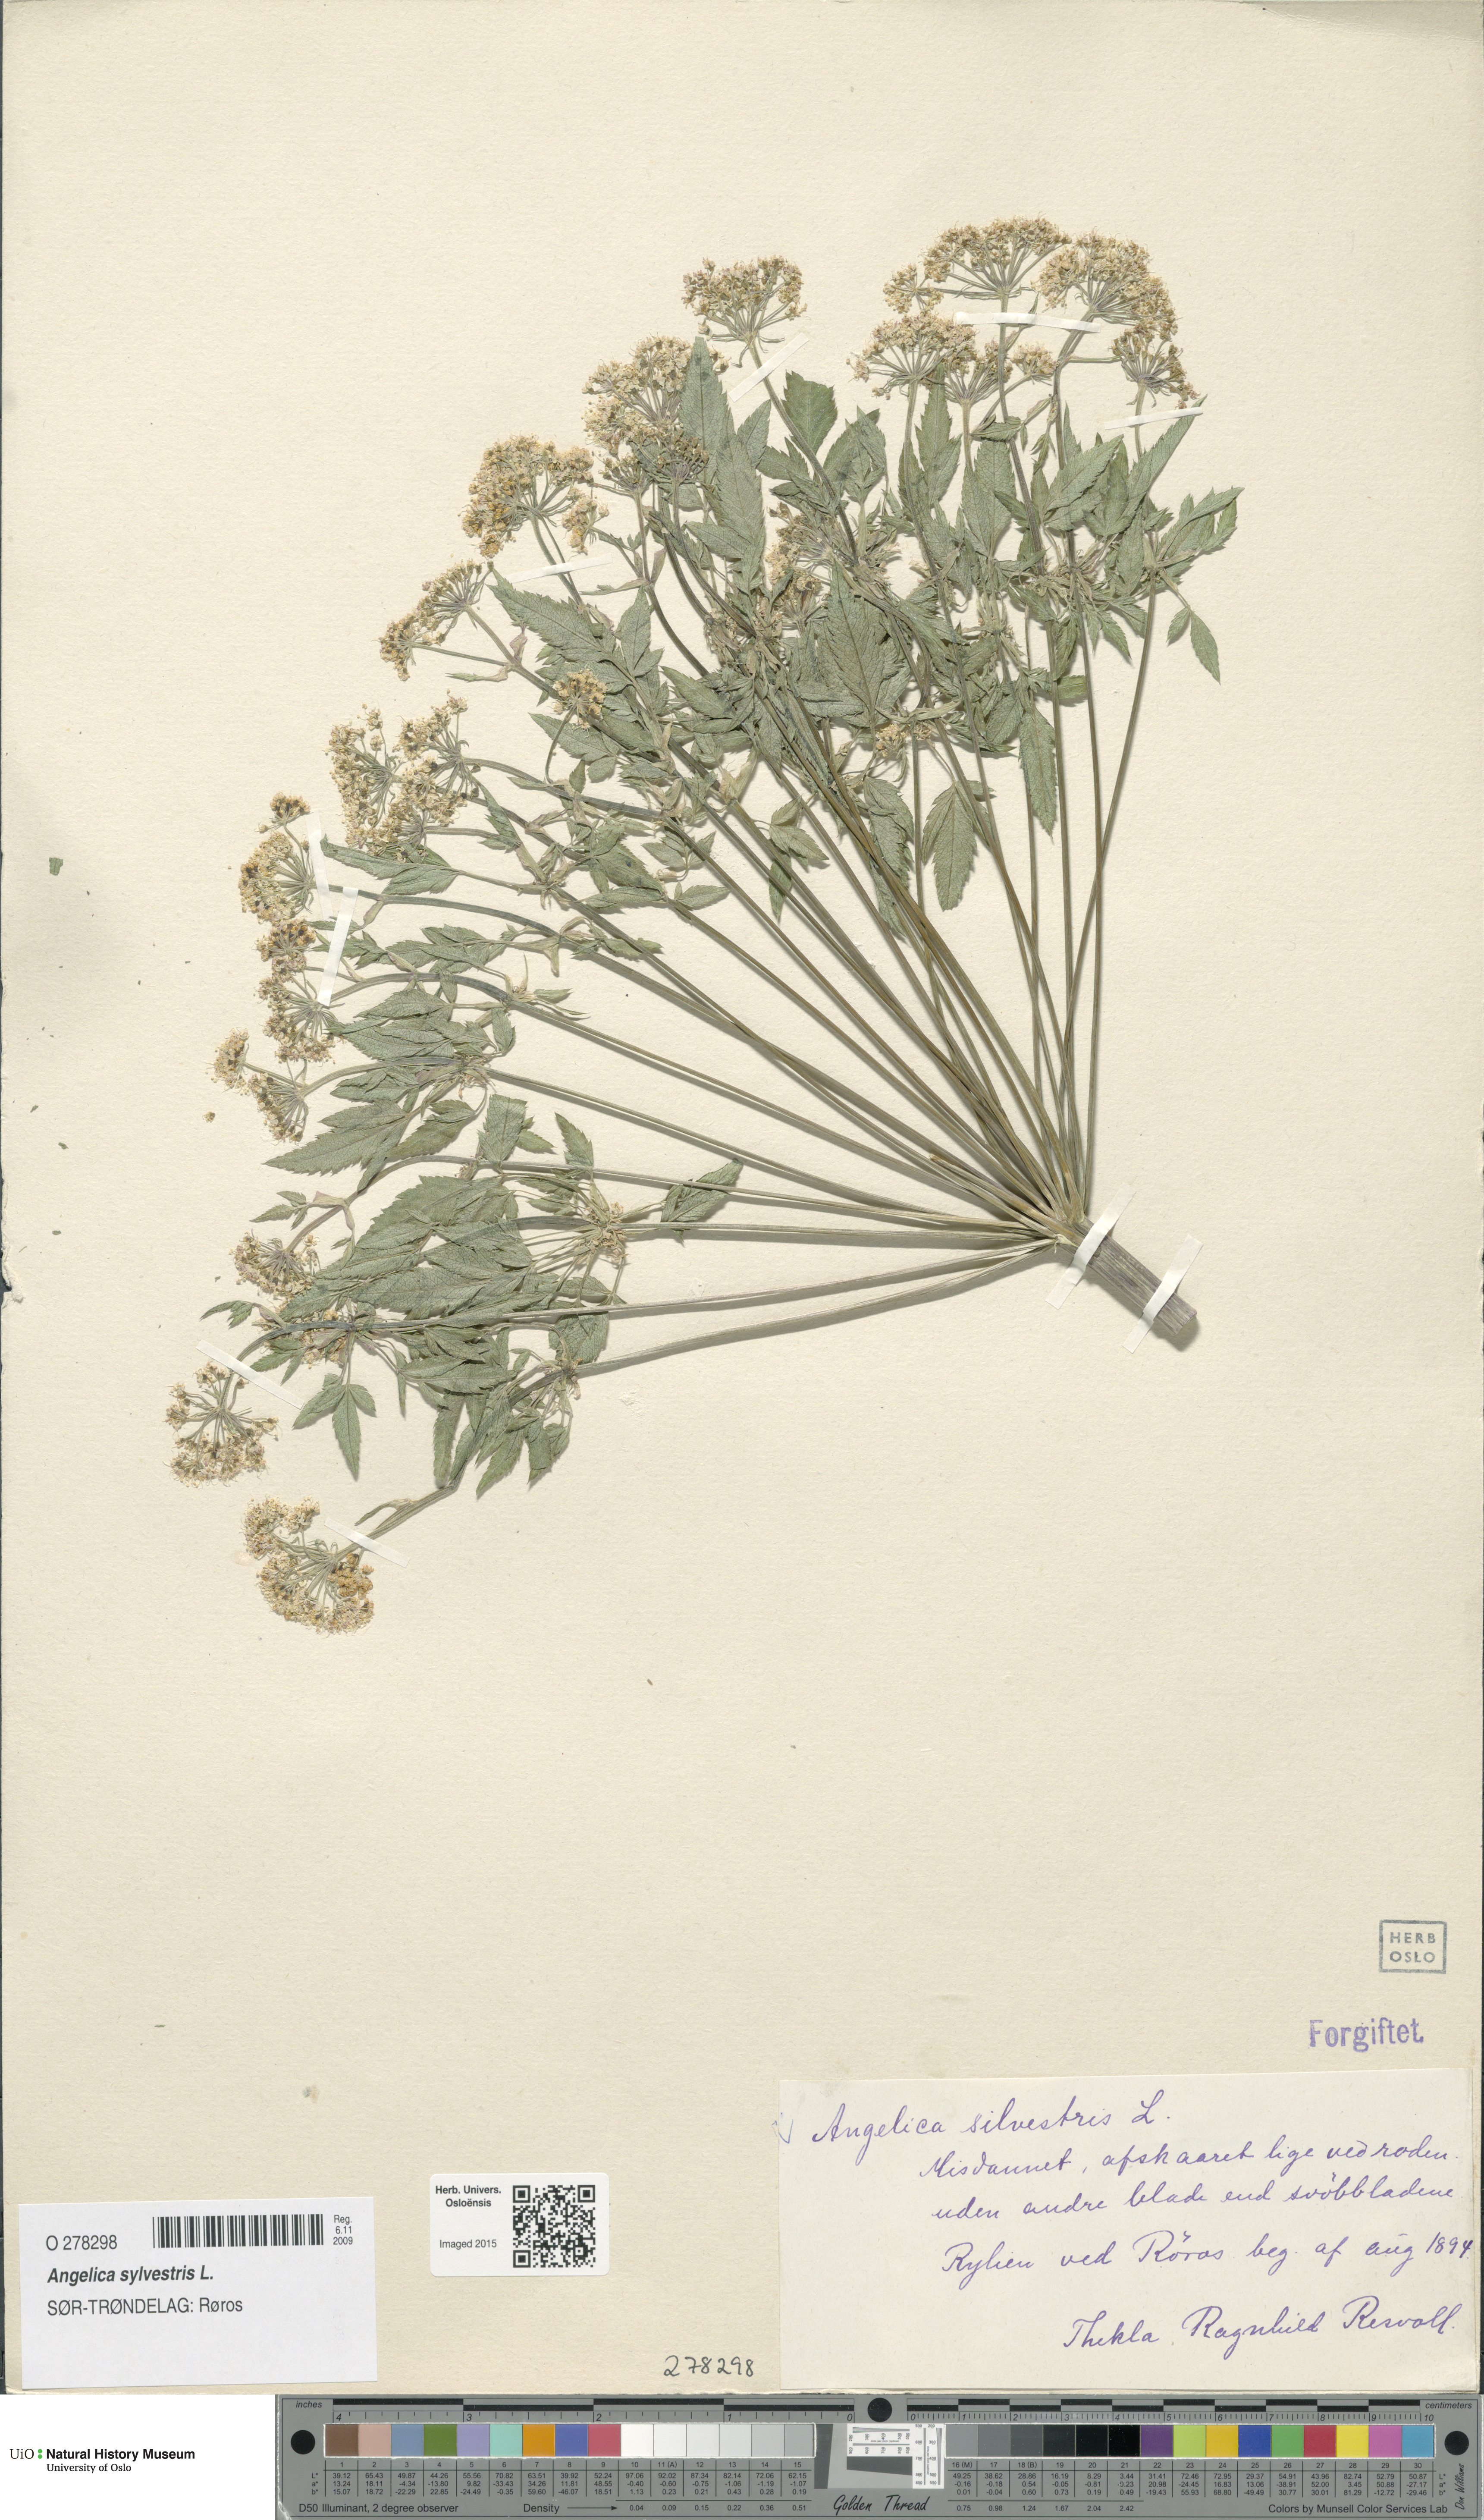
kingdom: Plantae
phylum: Tracheophyta
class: Magnoliopsida
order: Apiales
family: Apiaceae
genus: Angelica
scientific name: Angelica sylvestris
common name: Wild angelica
